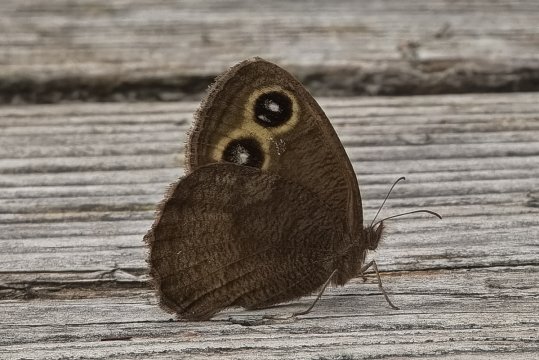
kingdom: Animalia
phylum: Arthropoda
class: Insecta
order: Lepidoptera
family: Nymphalidae
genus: Cercyonis
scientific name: Cercyonis pegala
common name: Common Wood-Nymph
